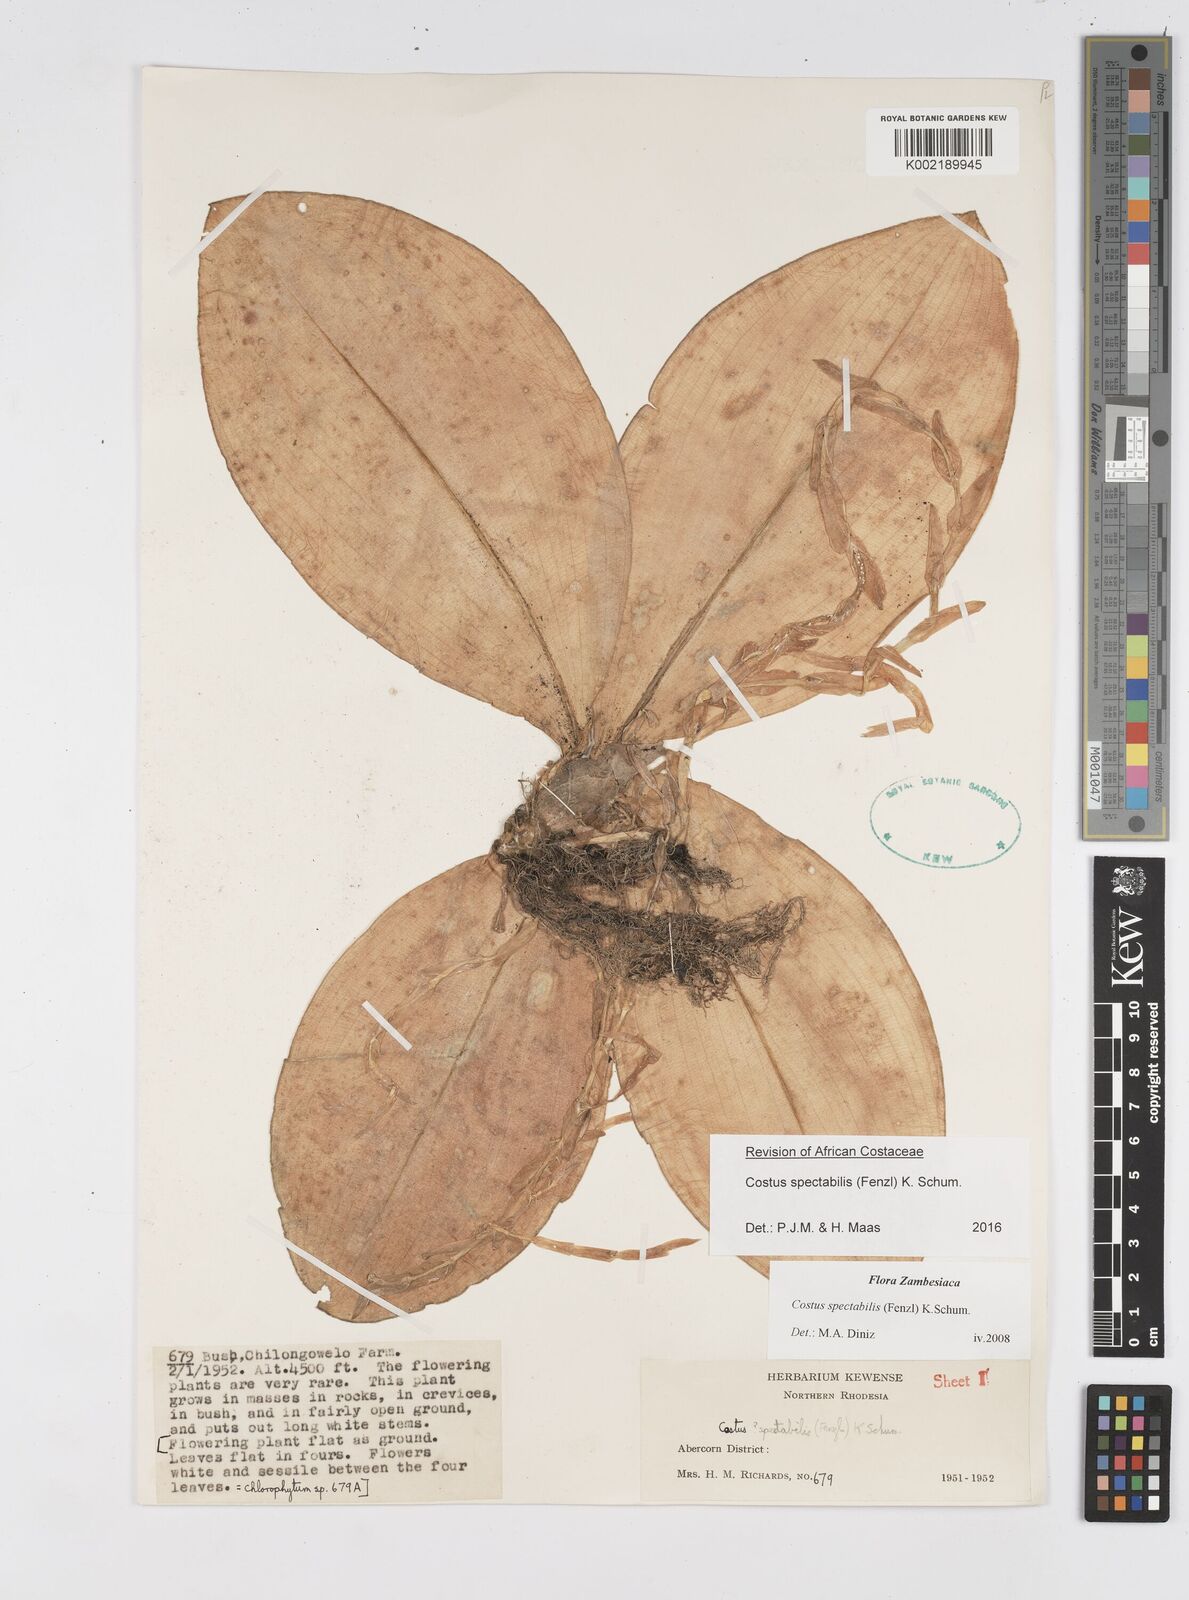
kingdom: Plantae
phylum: Tracheophyta
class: Liliopsida
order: Zingiberales
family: Costaceae
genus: Costus
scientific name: Costus spectabilis
